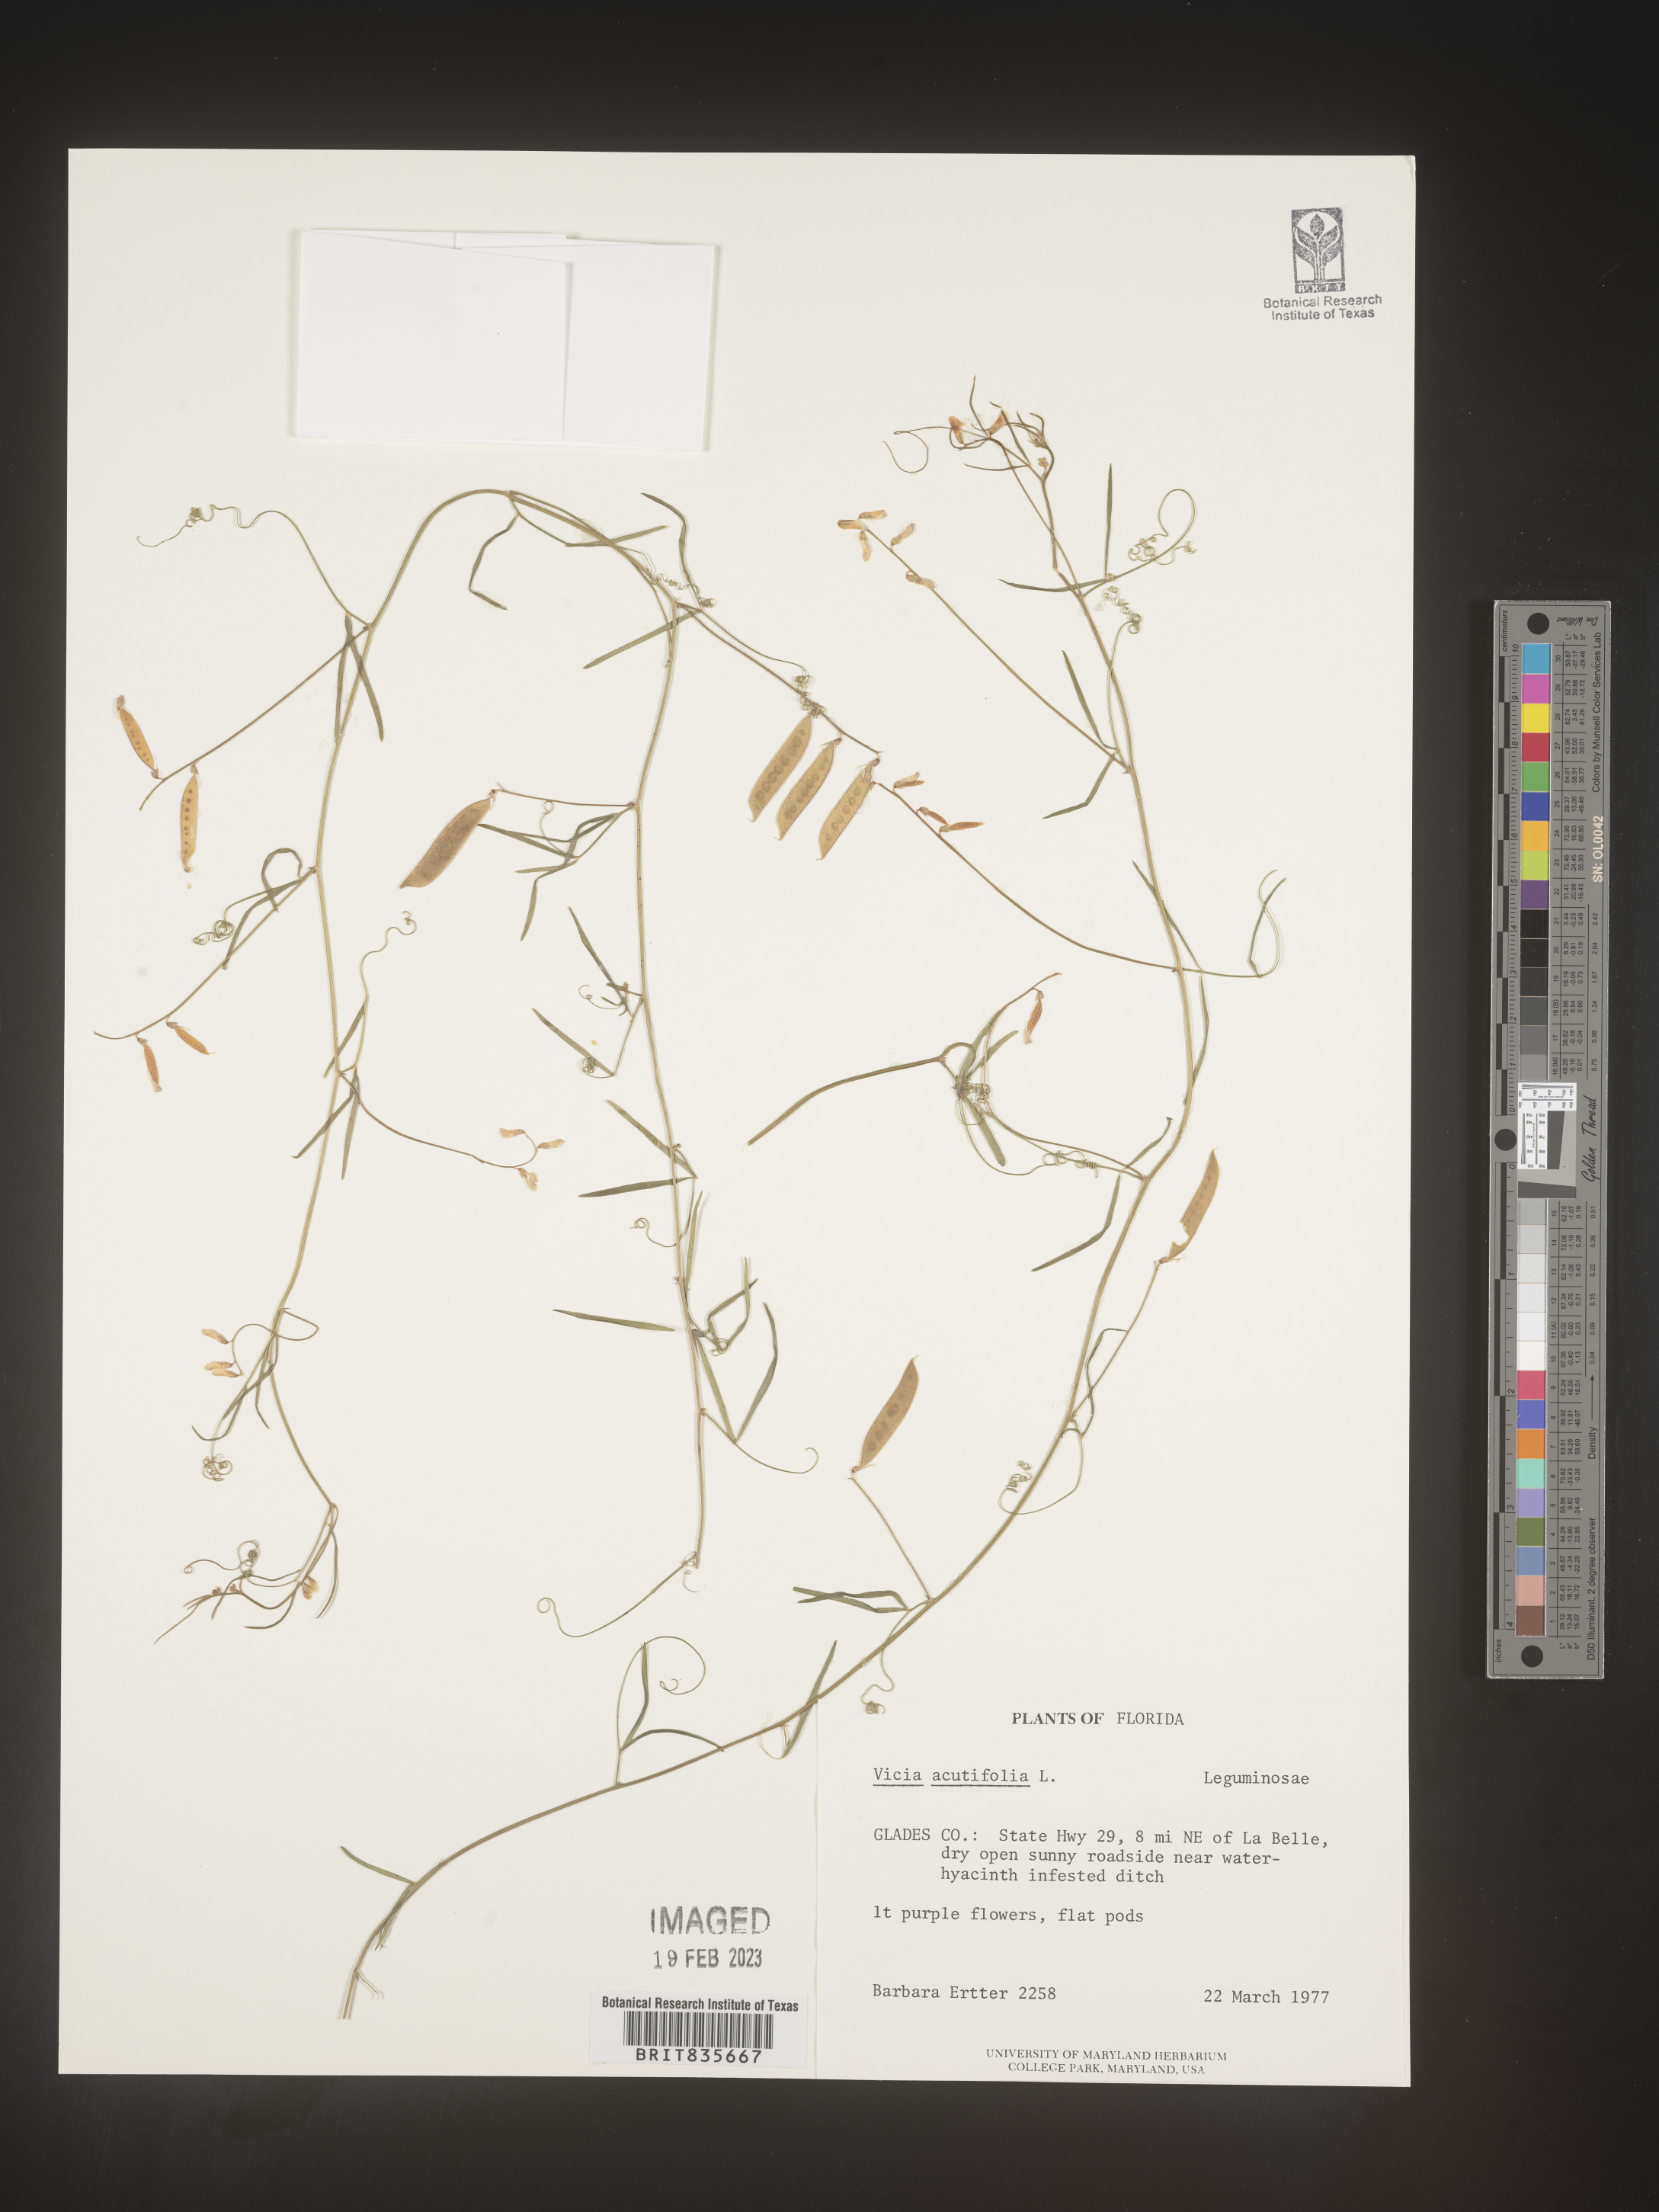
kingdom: Plantae
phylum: Tracheophyta
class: Magnoliopsida
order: Fabales
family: Fabaceae
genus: Vicia
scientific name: Vicia acutifolia
